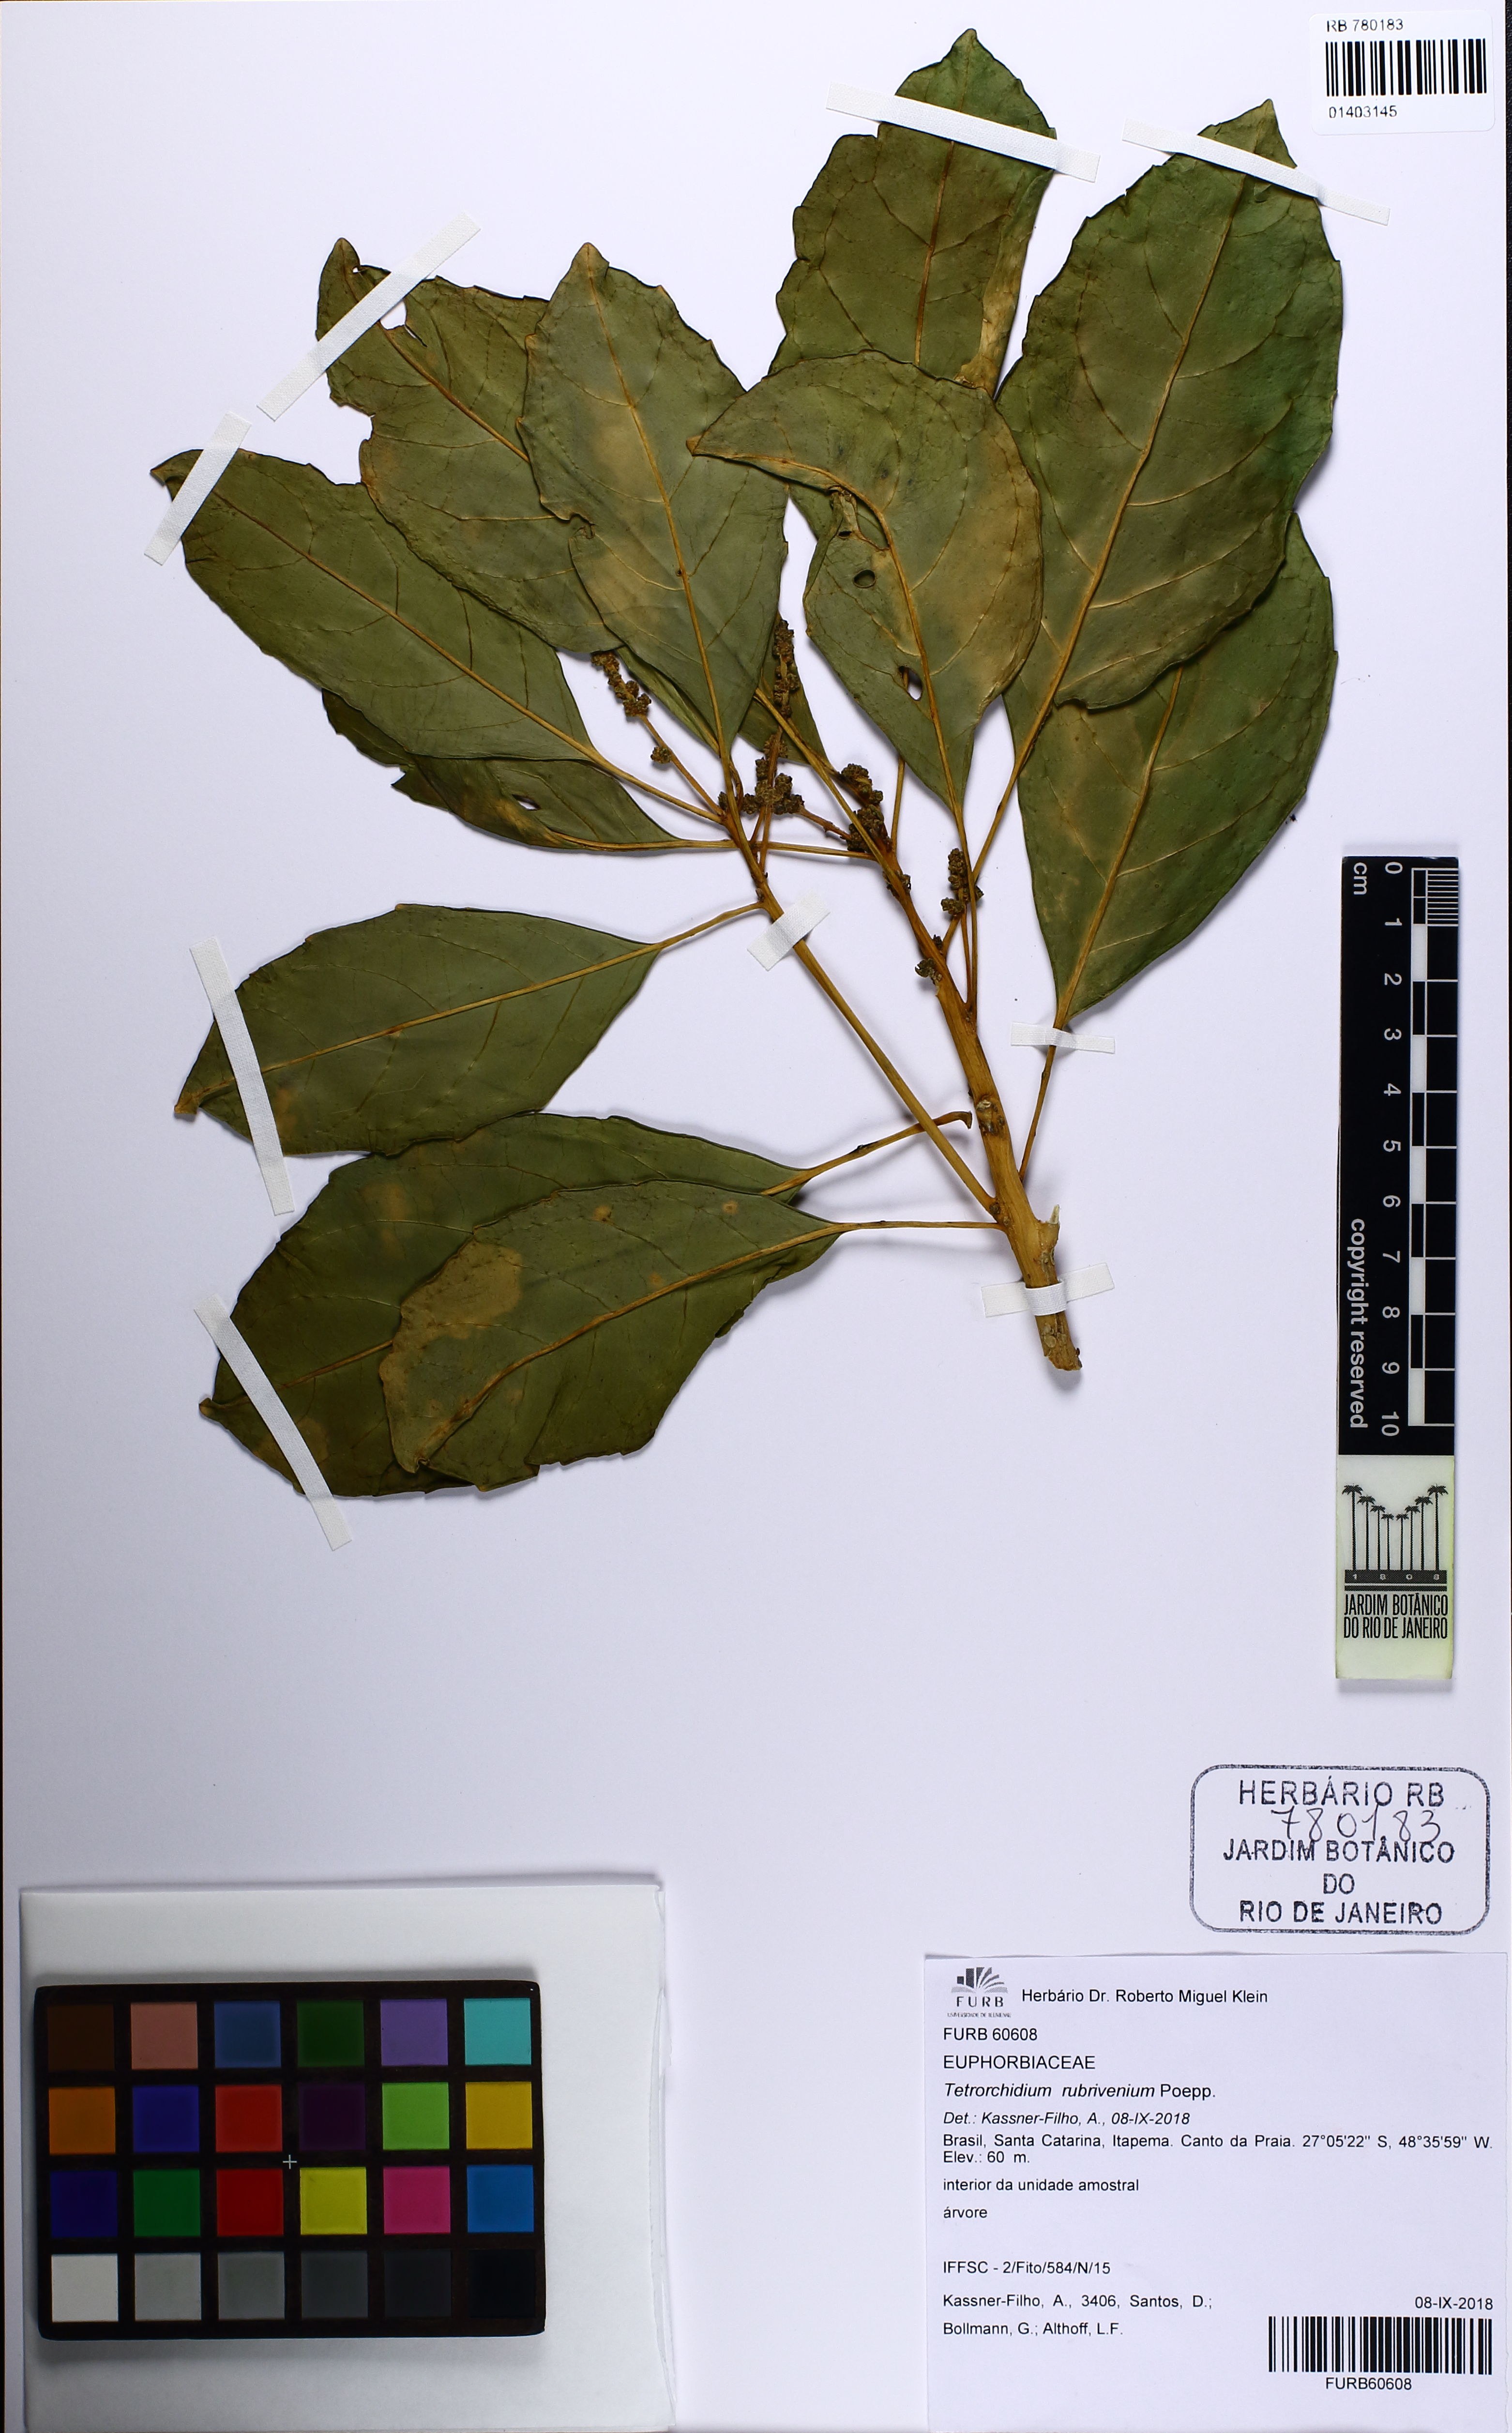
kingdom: Plantae
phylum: Tracheophyta
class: Magnoliopsida
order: Malpighiales
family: Euphorbiaceae
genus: Tetrorchidium
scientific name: Tetrorchidium rubrivenium
